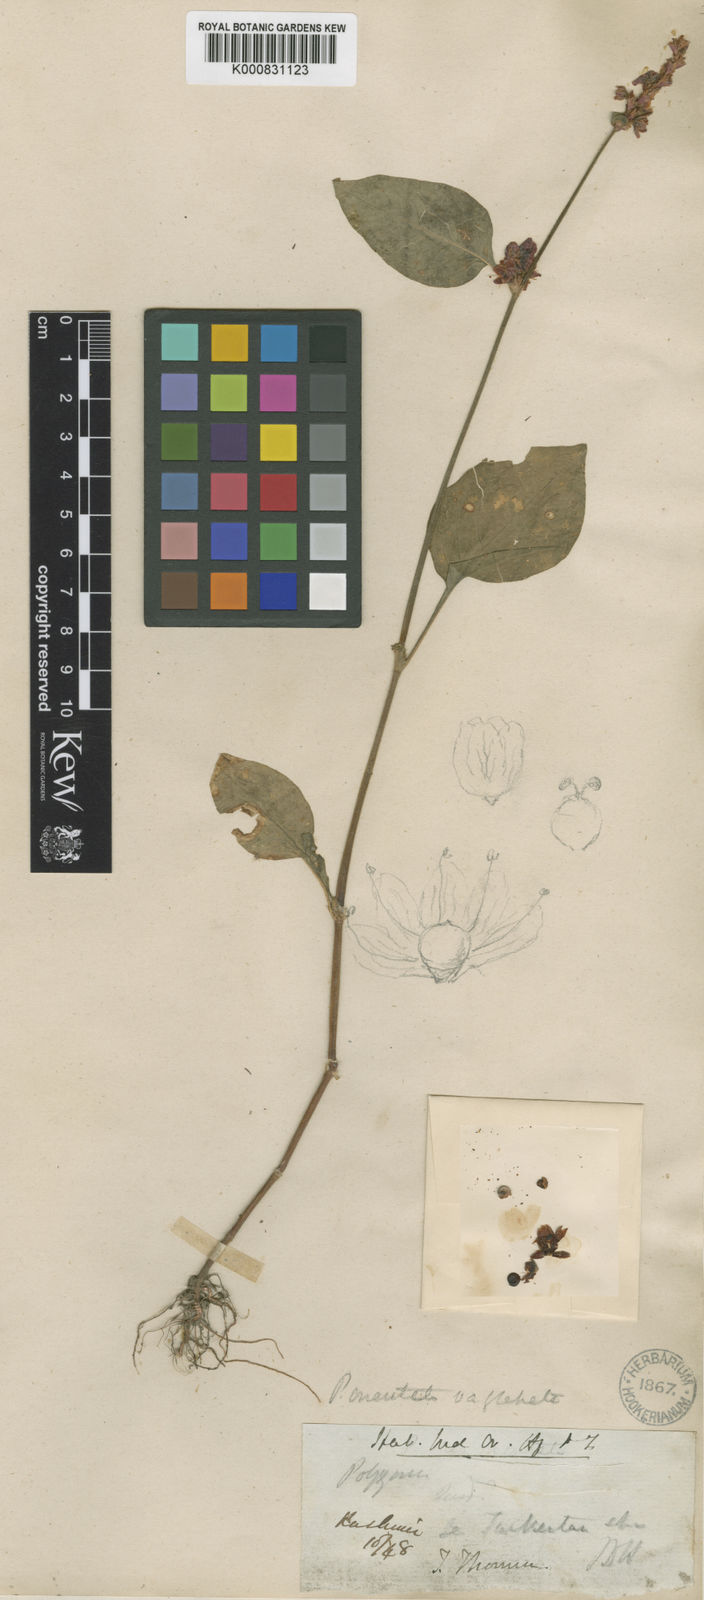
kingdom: Plantae
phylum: Tracheophyta
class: Magnoliopsida
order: Caryophyllales
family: Polygonaceae
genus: Persicaria
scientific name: Persicaria orientalis
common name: Kiss-me-over-the-garden-gate
